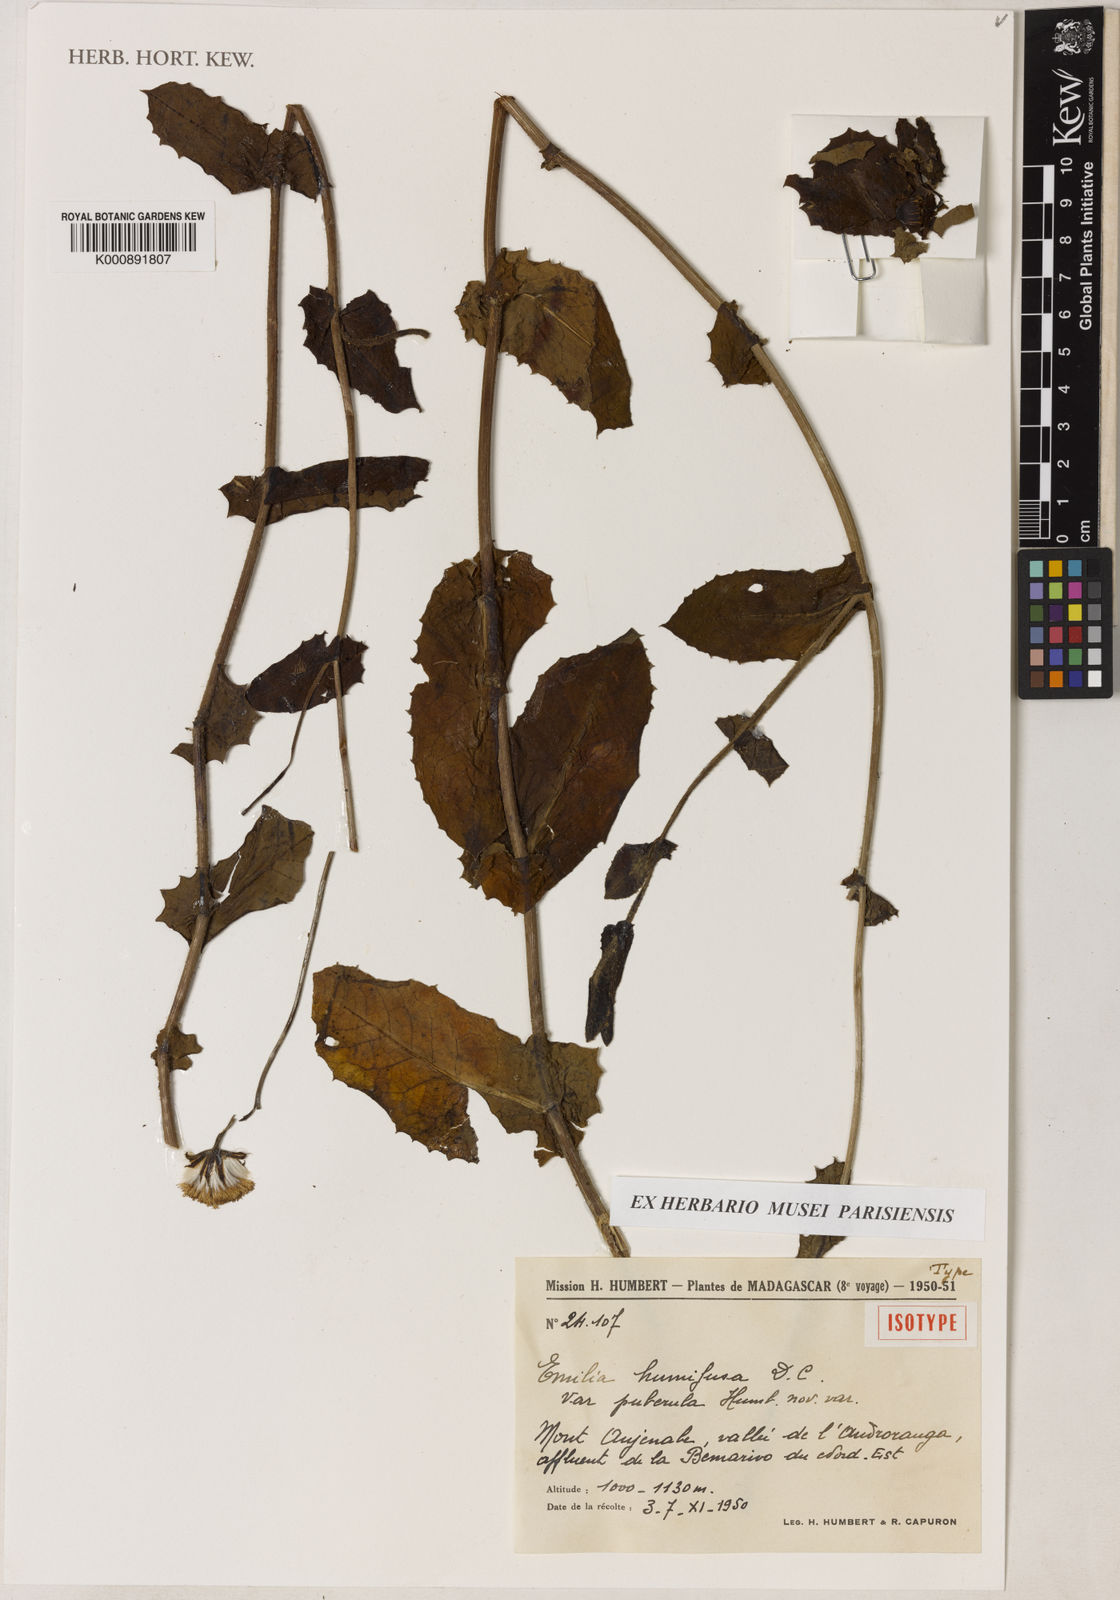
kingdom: Plantae
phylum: Tracheophyta
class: Magnoliopsida
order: Asterales
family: Asteraceae
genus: Emilia
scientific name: Emilia humifusa
